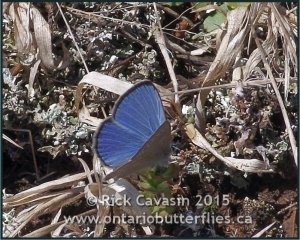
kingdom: Animalia
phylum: Arthropoda
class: Insecta
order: Lepidoptera
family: Lycaenidae
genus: Glaucopsyche
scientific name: Glaucopsyche lygdamus
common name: Silvery Blue
